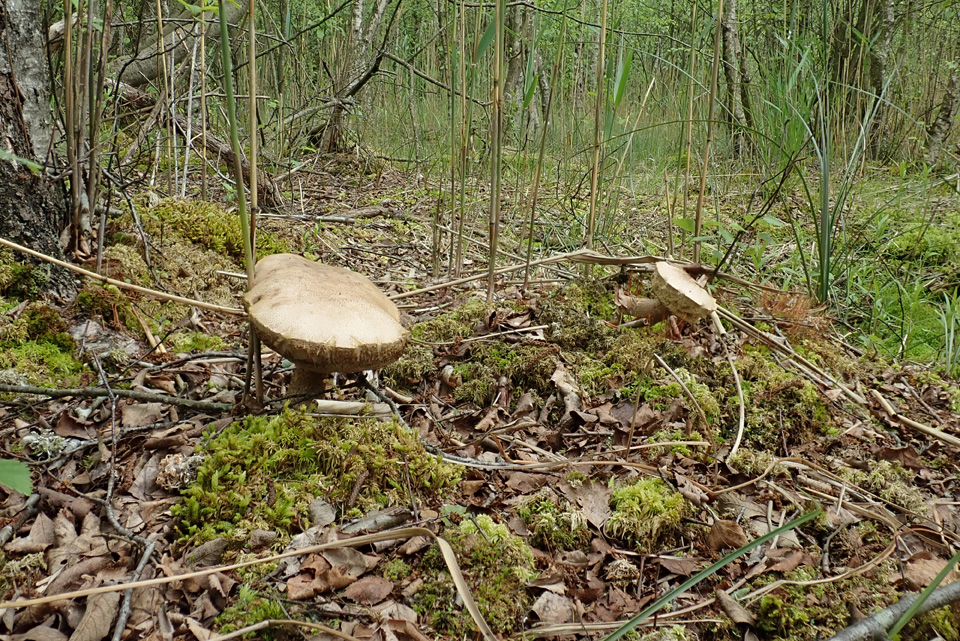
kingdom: Fungi
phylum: Basidiomycota
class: Agaricomycetes
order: Boletales
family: Boletaceae
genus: Leccinum
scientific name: Leccinum schistophilum
